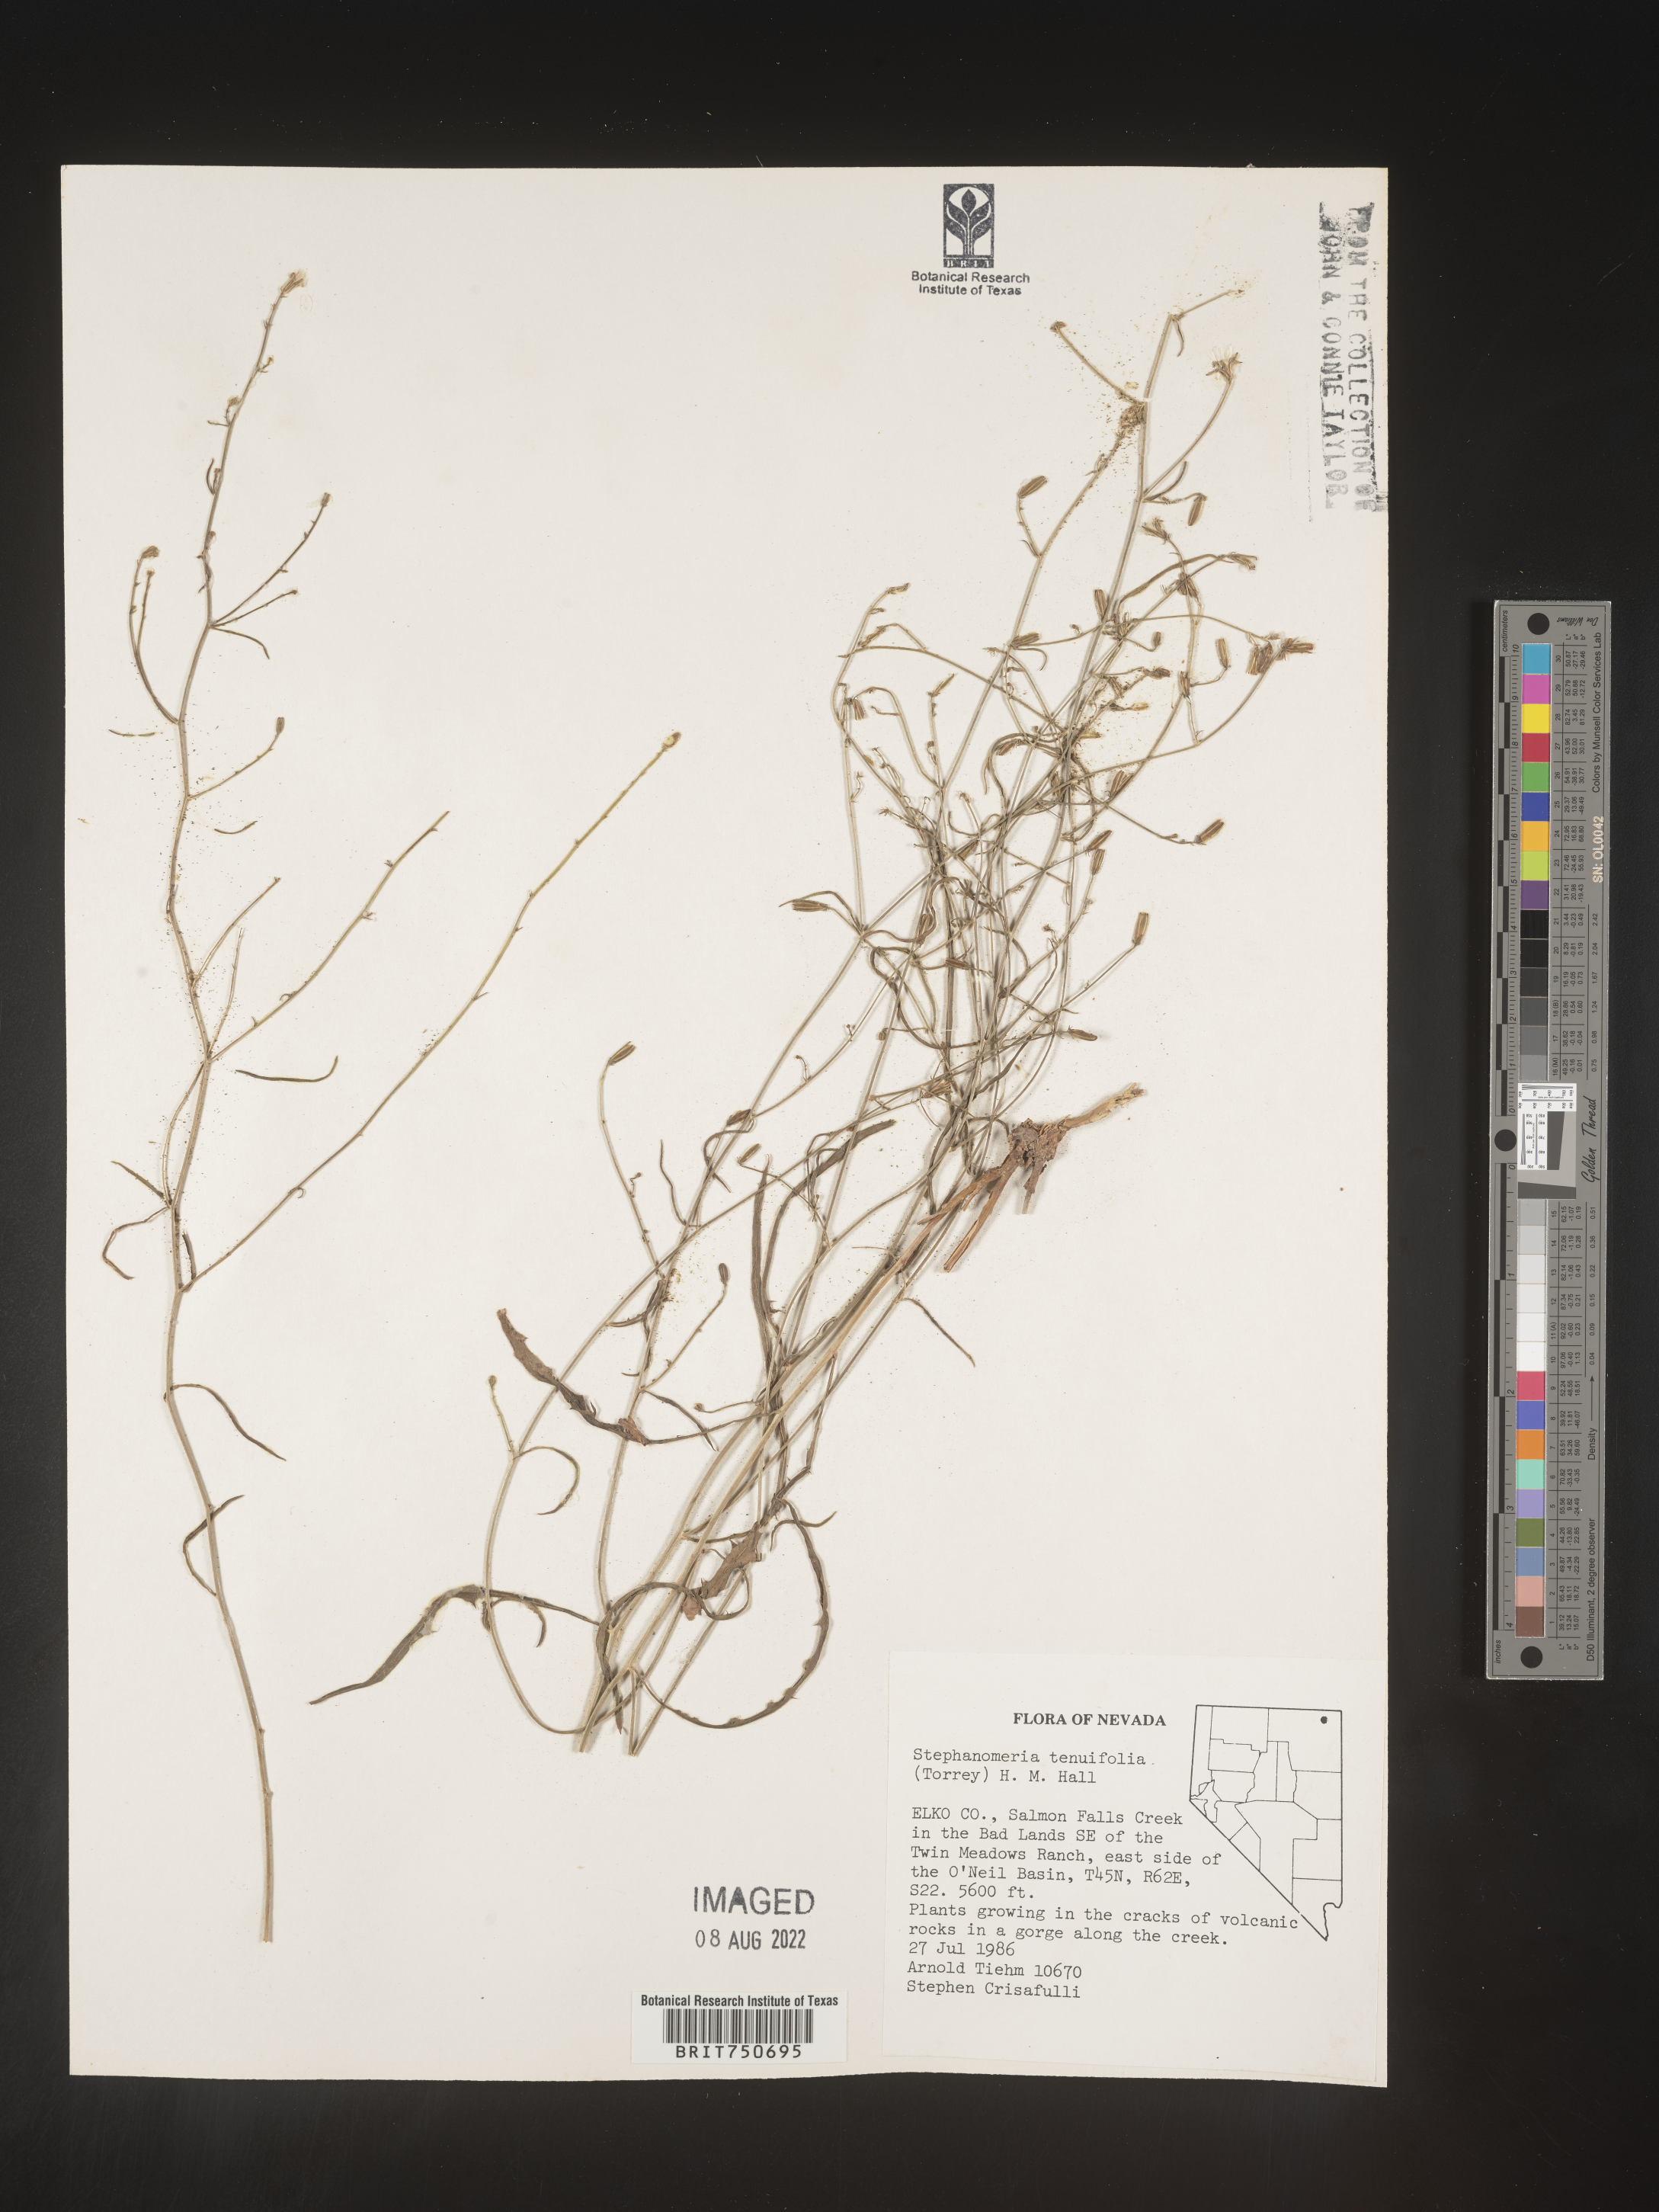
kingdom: Plantae
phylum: Tracheophyta
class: Magnoliopsida
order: Asterales
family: Asteraceae
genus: Stephanomeria
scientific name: Stephanomeria tenuifolia
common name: Slender wirelettuce
